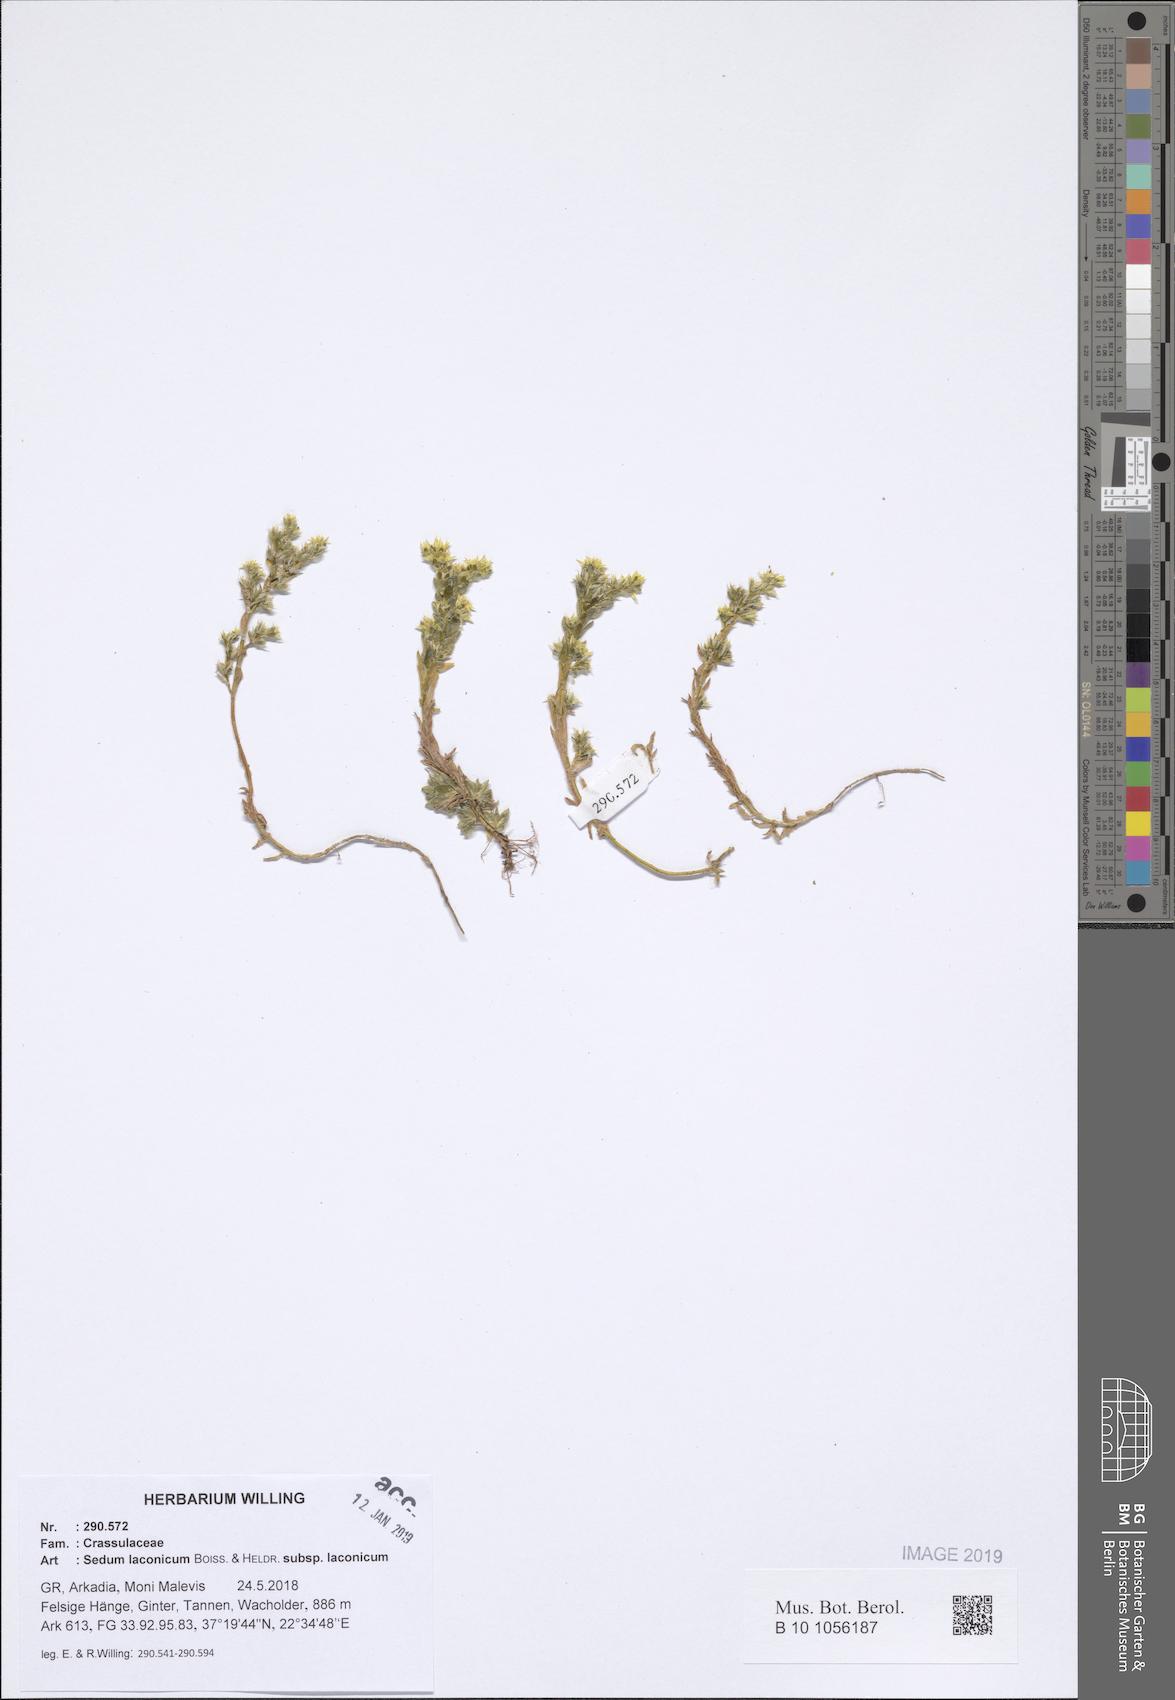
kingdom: Plantae
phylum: Tracheophyta
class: Magnoliopsida
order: Saxifragales
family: Crassulaceae
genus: Sedum
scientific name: Sedum laconicum
